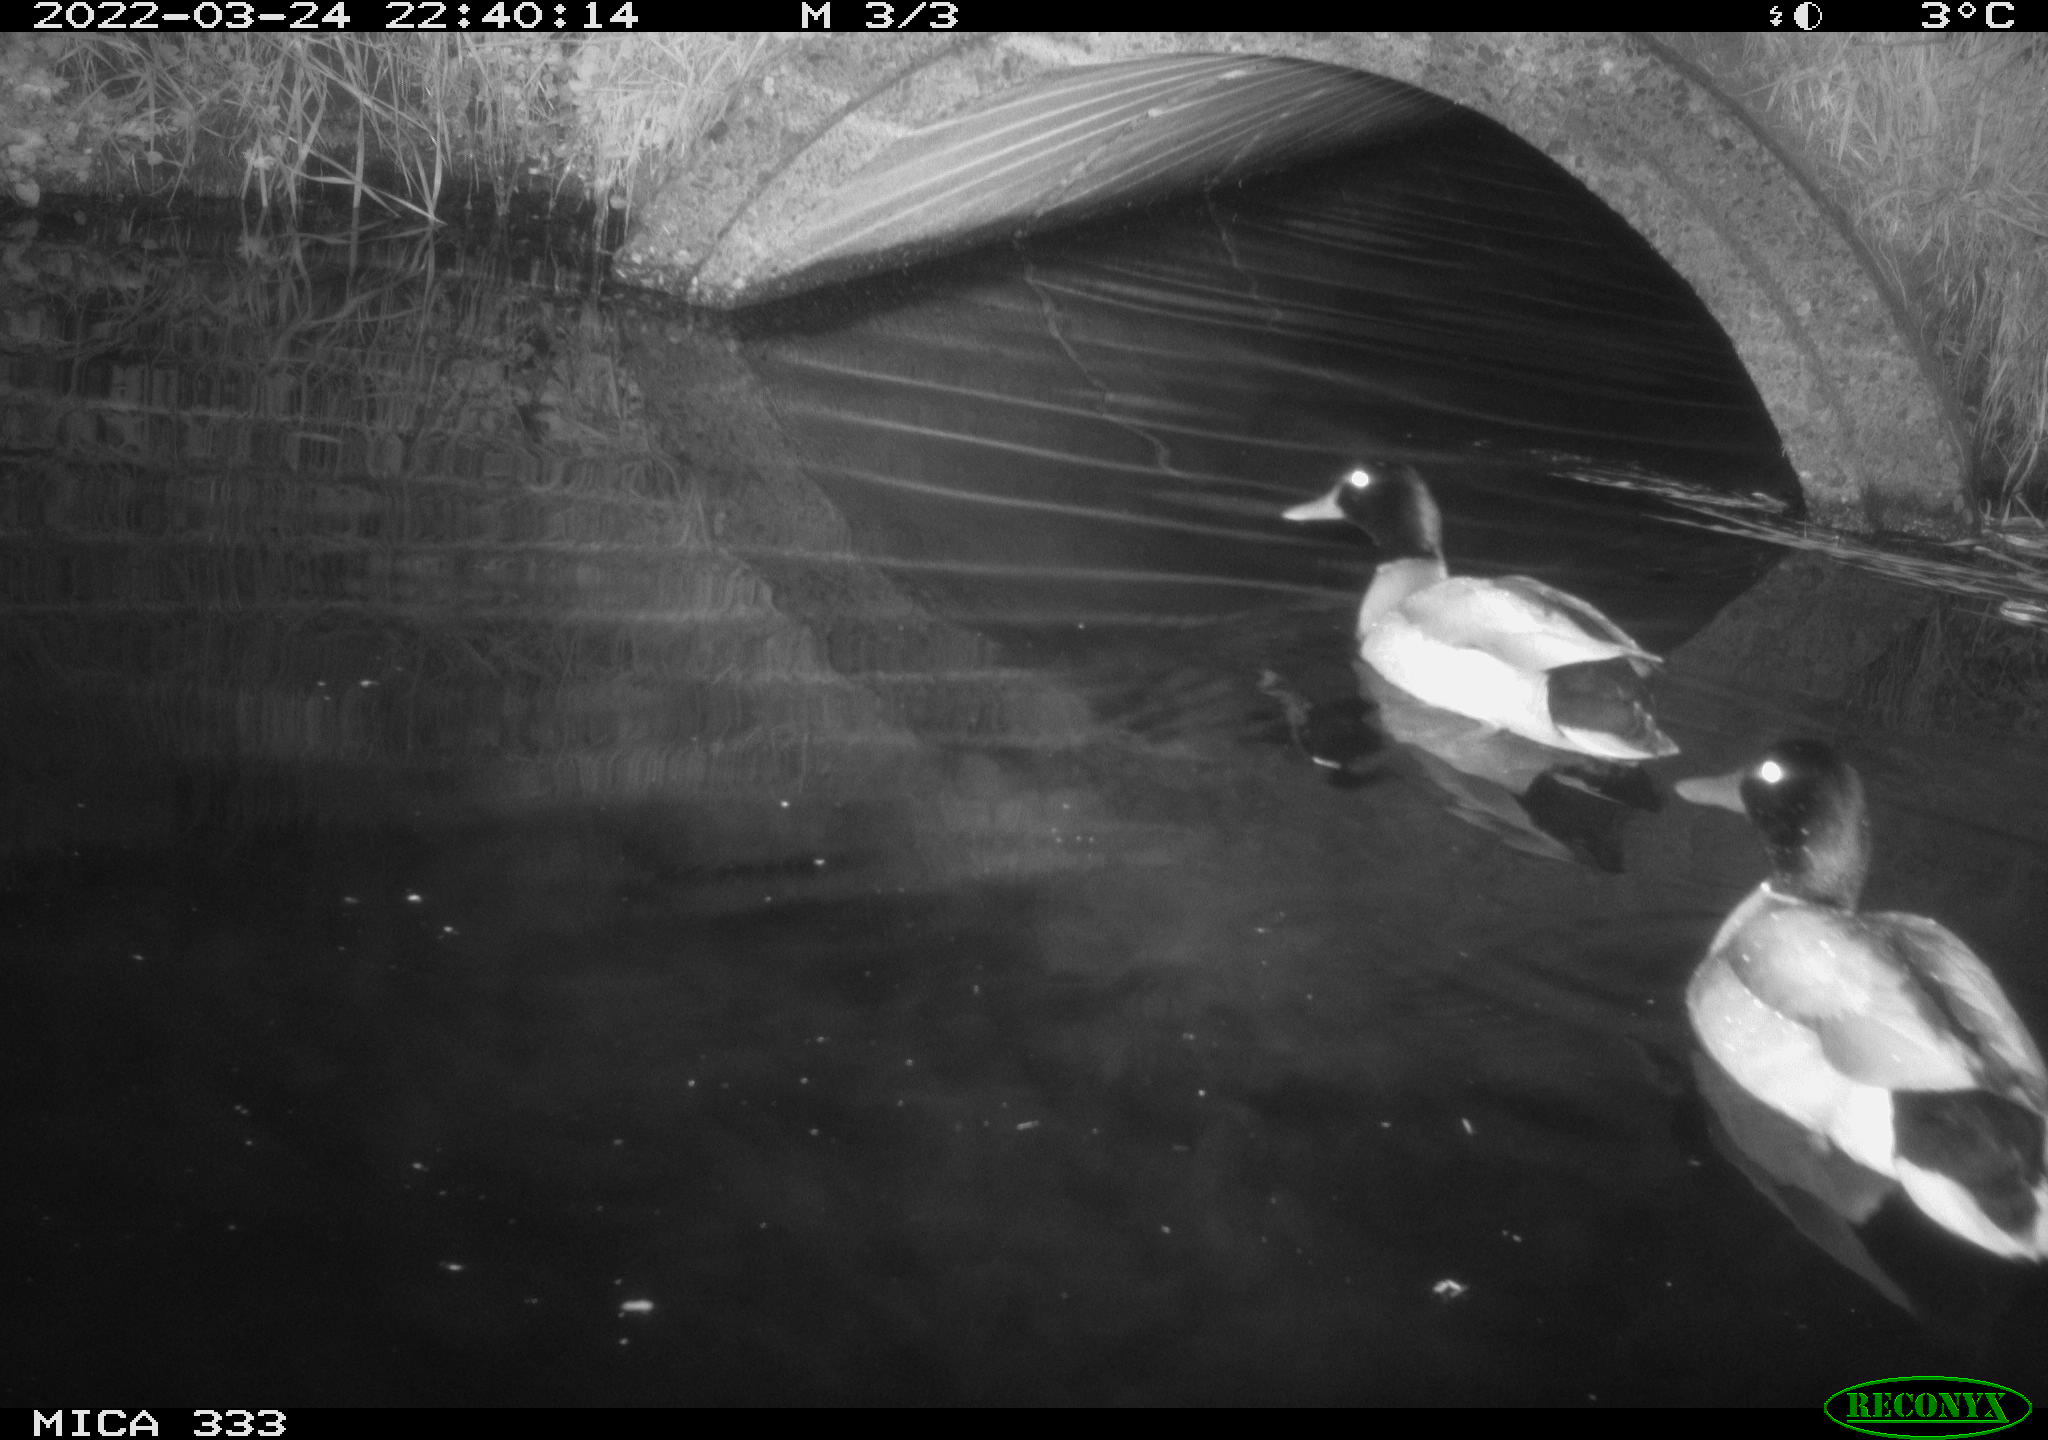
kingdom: Animalia
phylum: Chordata
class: Aves
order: Anseriformes
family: Anatidae
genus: Anas
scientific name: Anas platyrhynchos
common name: Mallard
